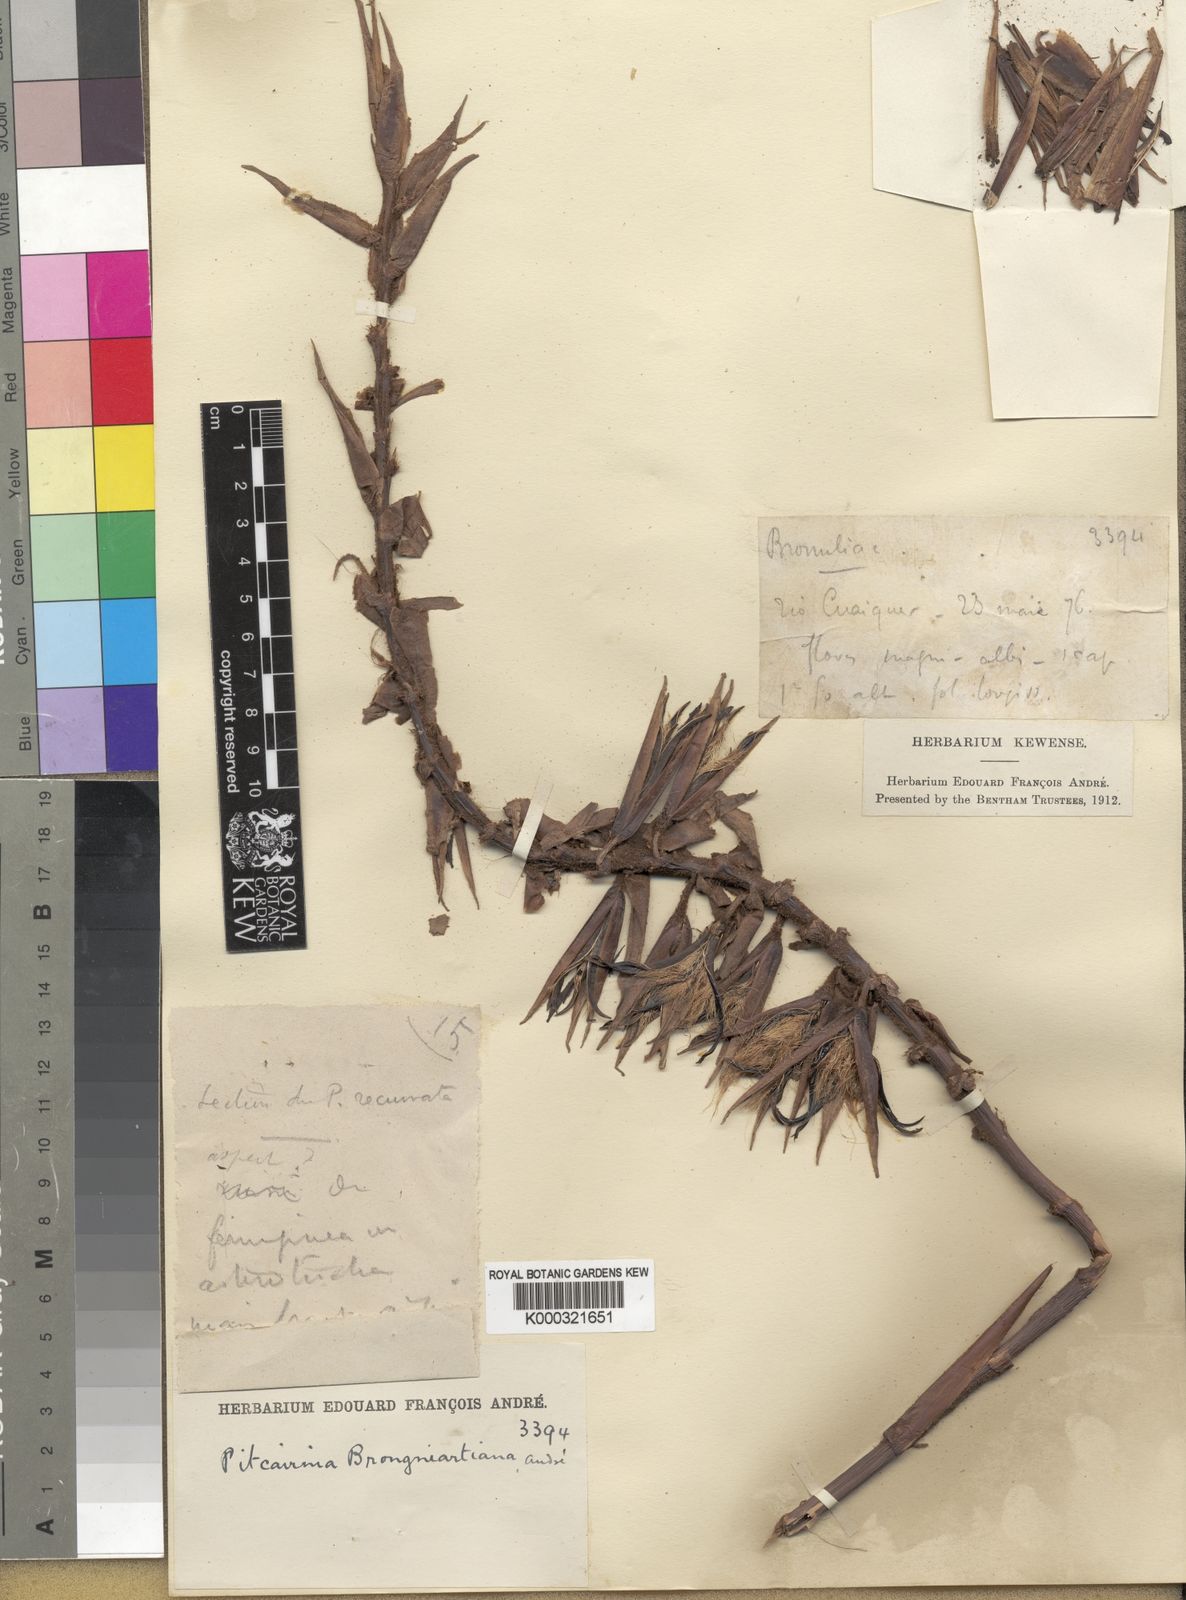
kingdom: Plantae
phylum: Tracheophyta
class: Liliopsida
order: Poales
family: Bromeliaceae
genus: Pitcairnia
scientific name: Pitcairnia
